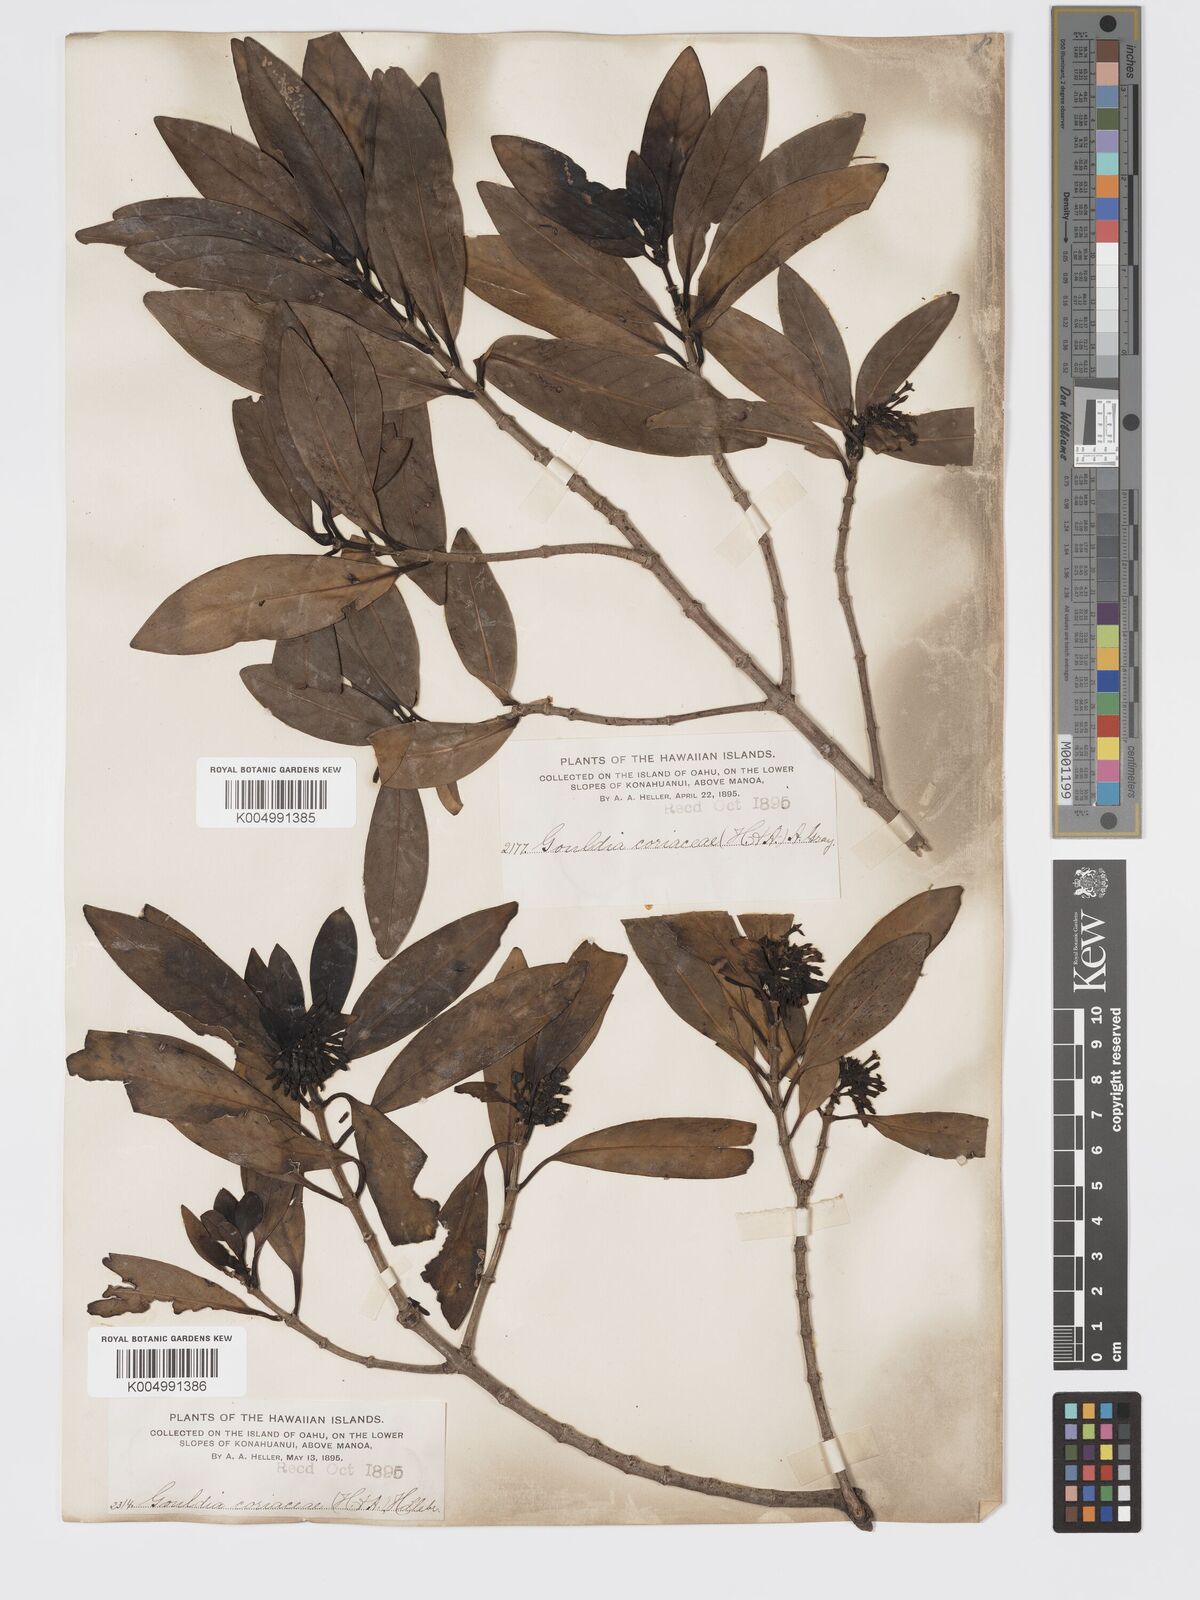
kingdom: Plantae
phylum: Tracheophyta
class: Magnoliopsida
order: Gentianales
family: Rubiaceae
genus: Kadua
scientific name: Kadua affinis
